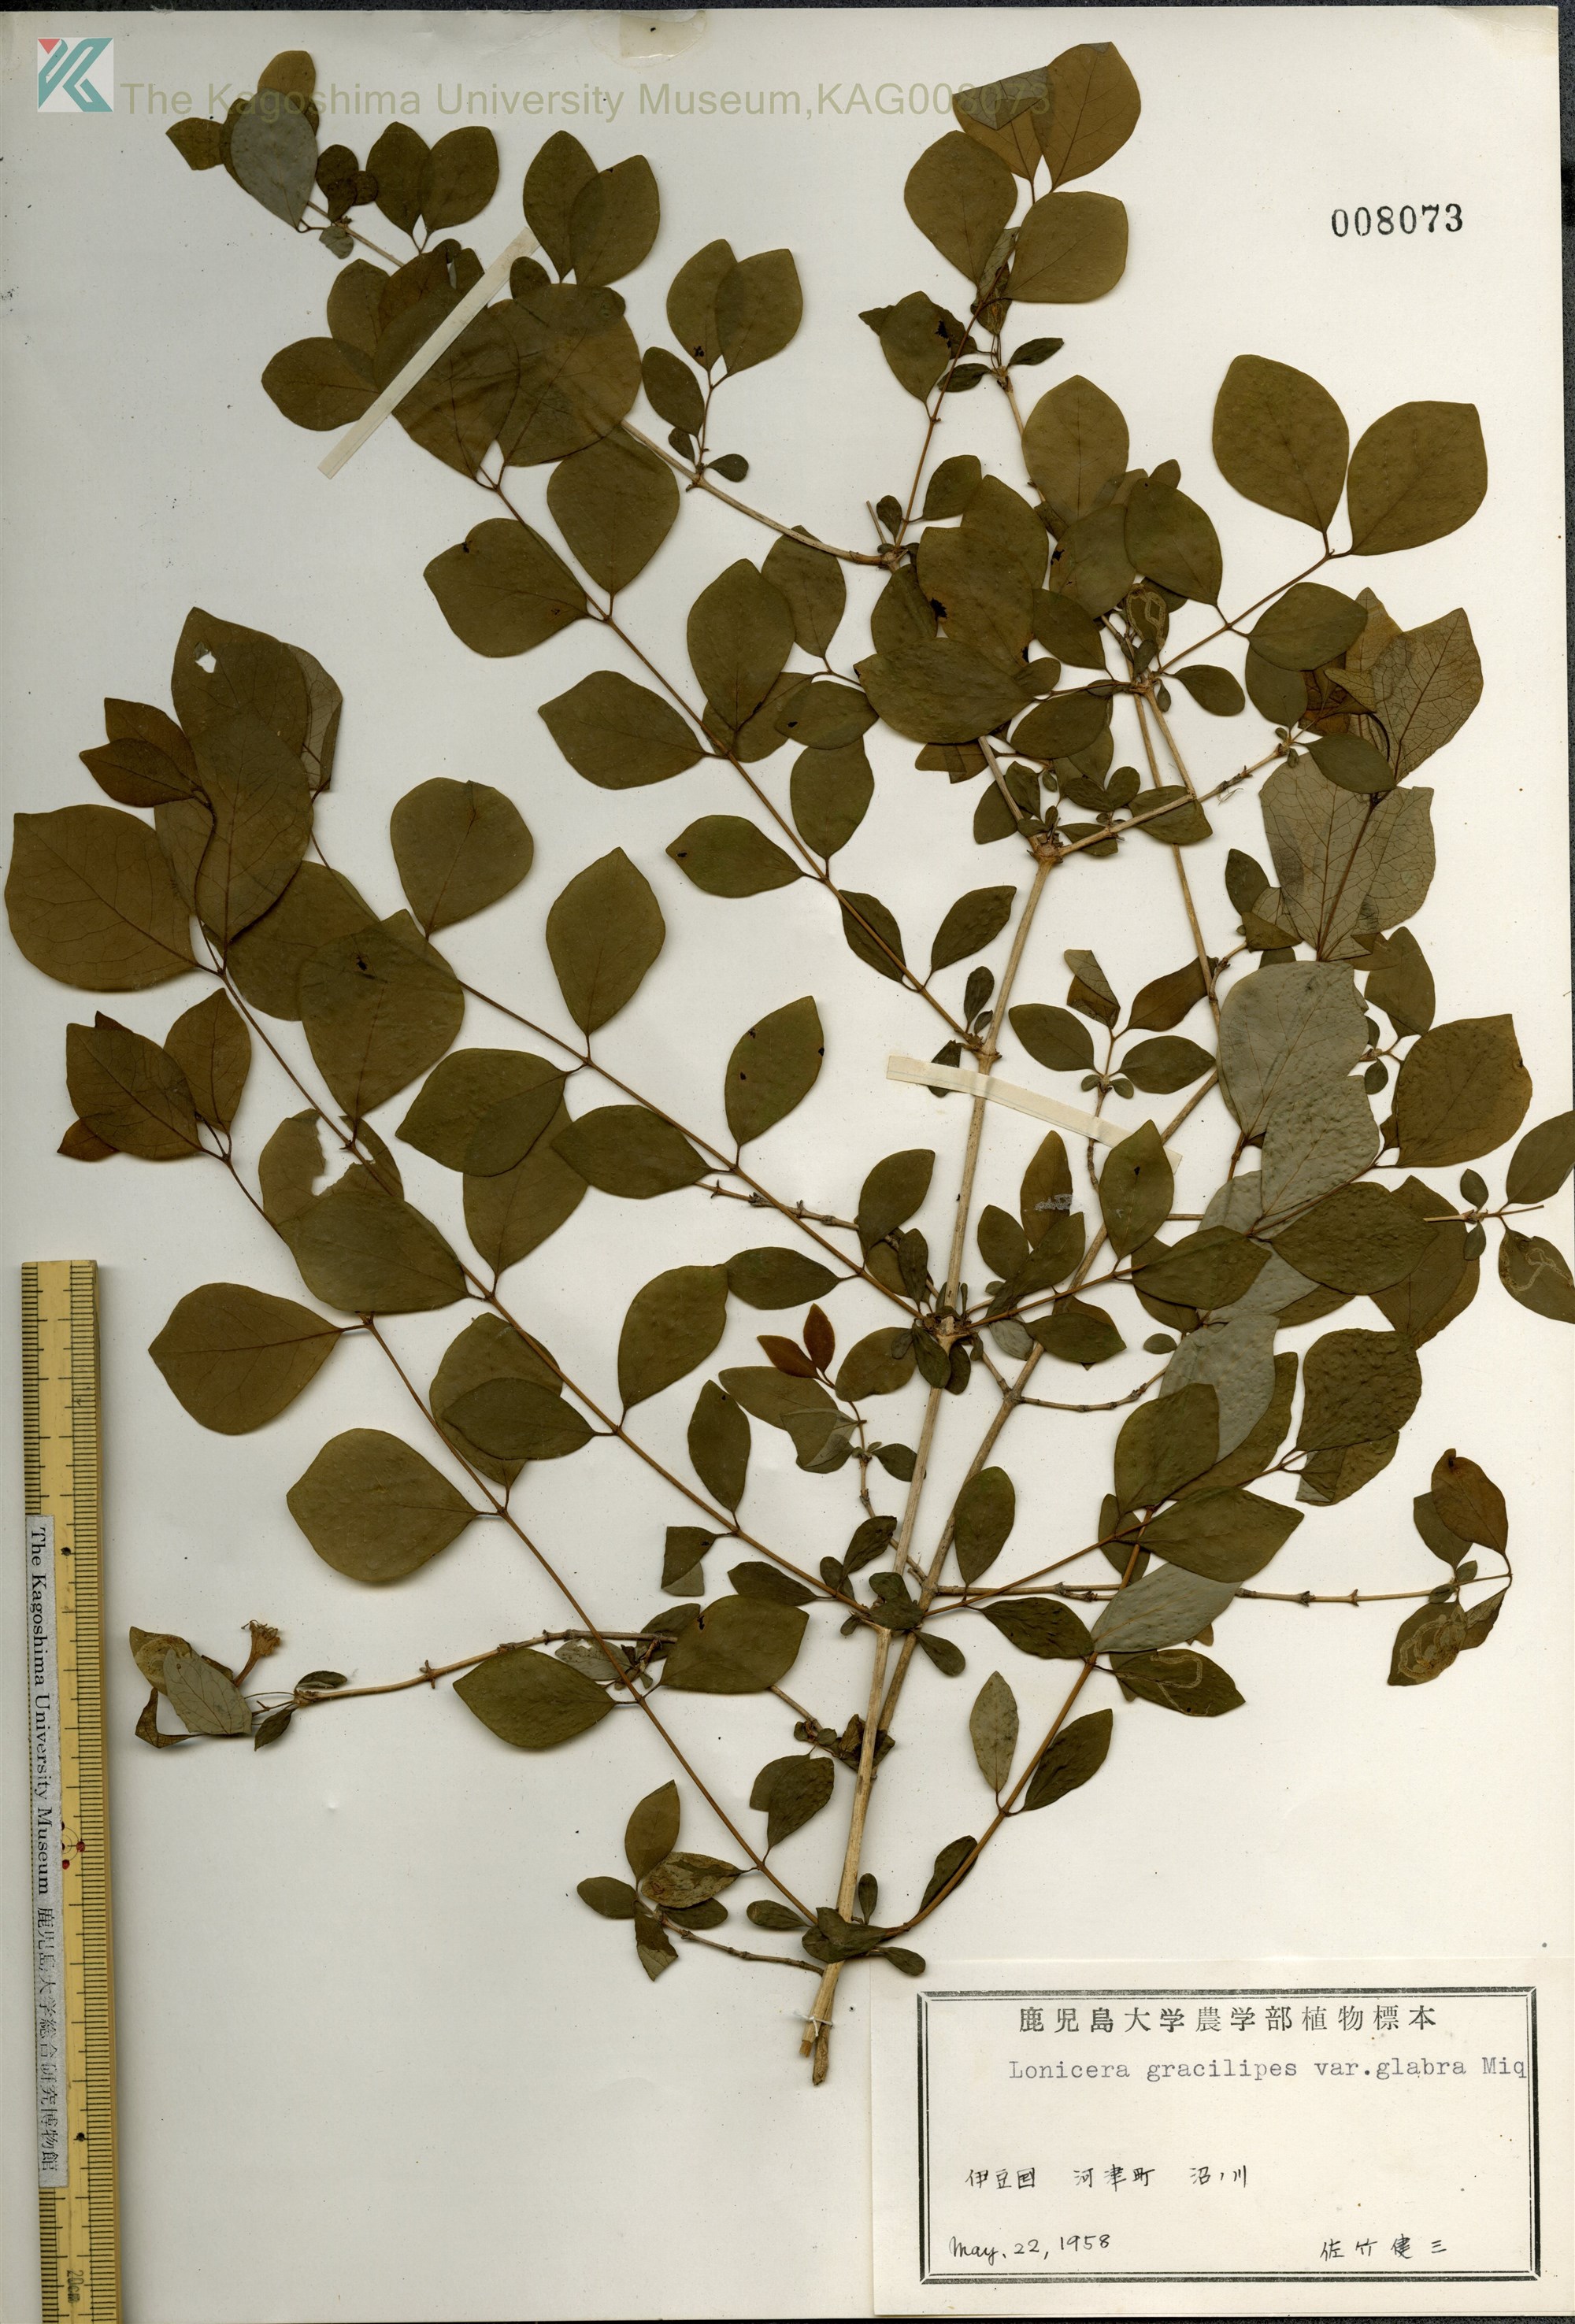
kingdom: Plantae
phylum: Tracheophyta
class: Magnoliopsida
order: Dipsacales
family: Caprifoliaceae
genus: Lonicera
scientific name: Lonicera gracilipes
